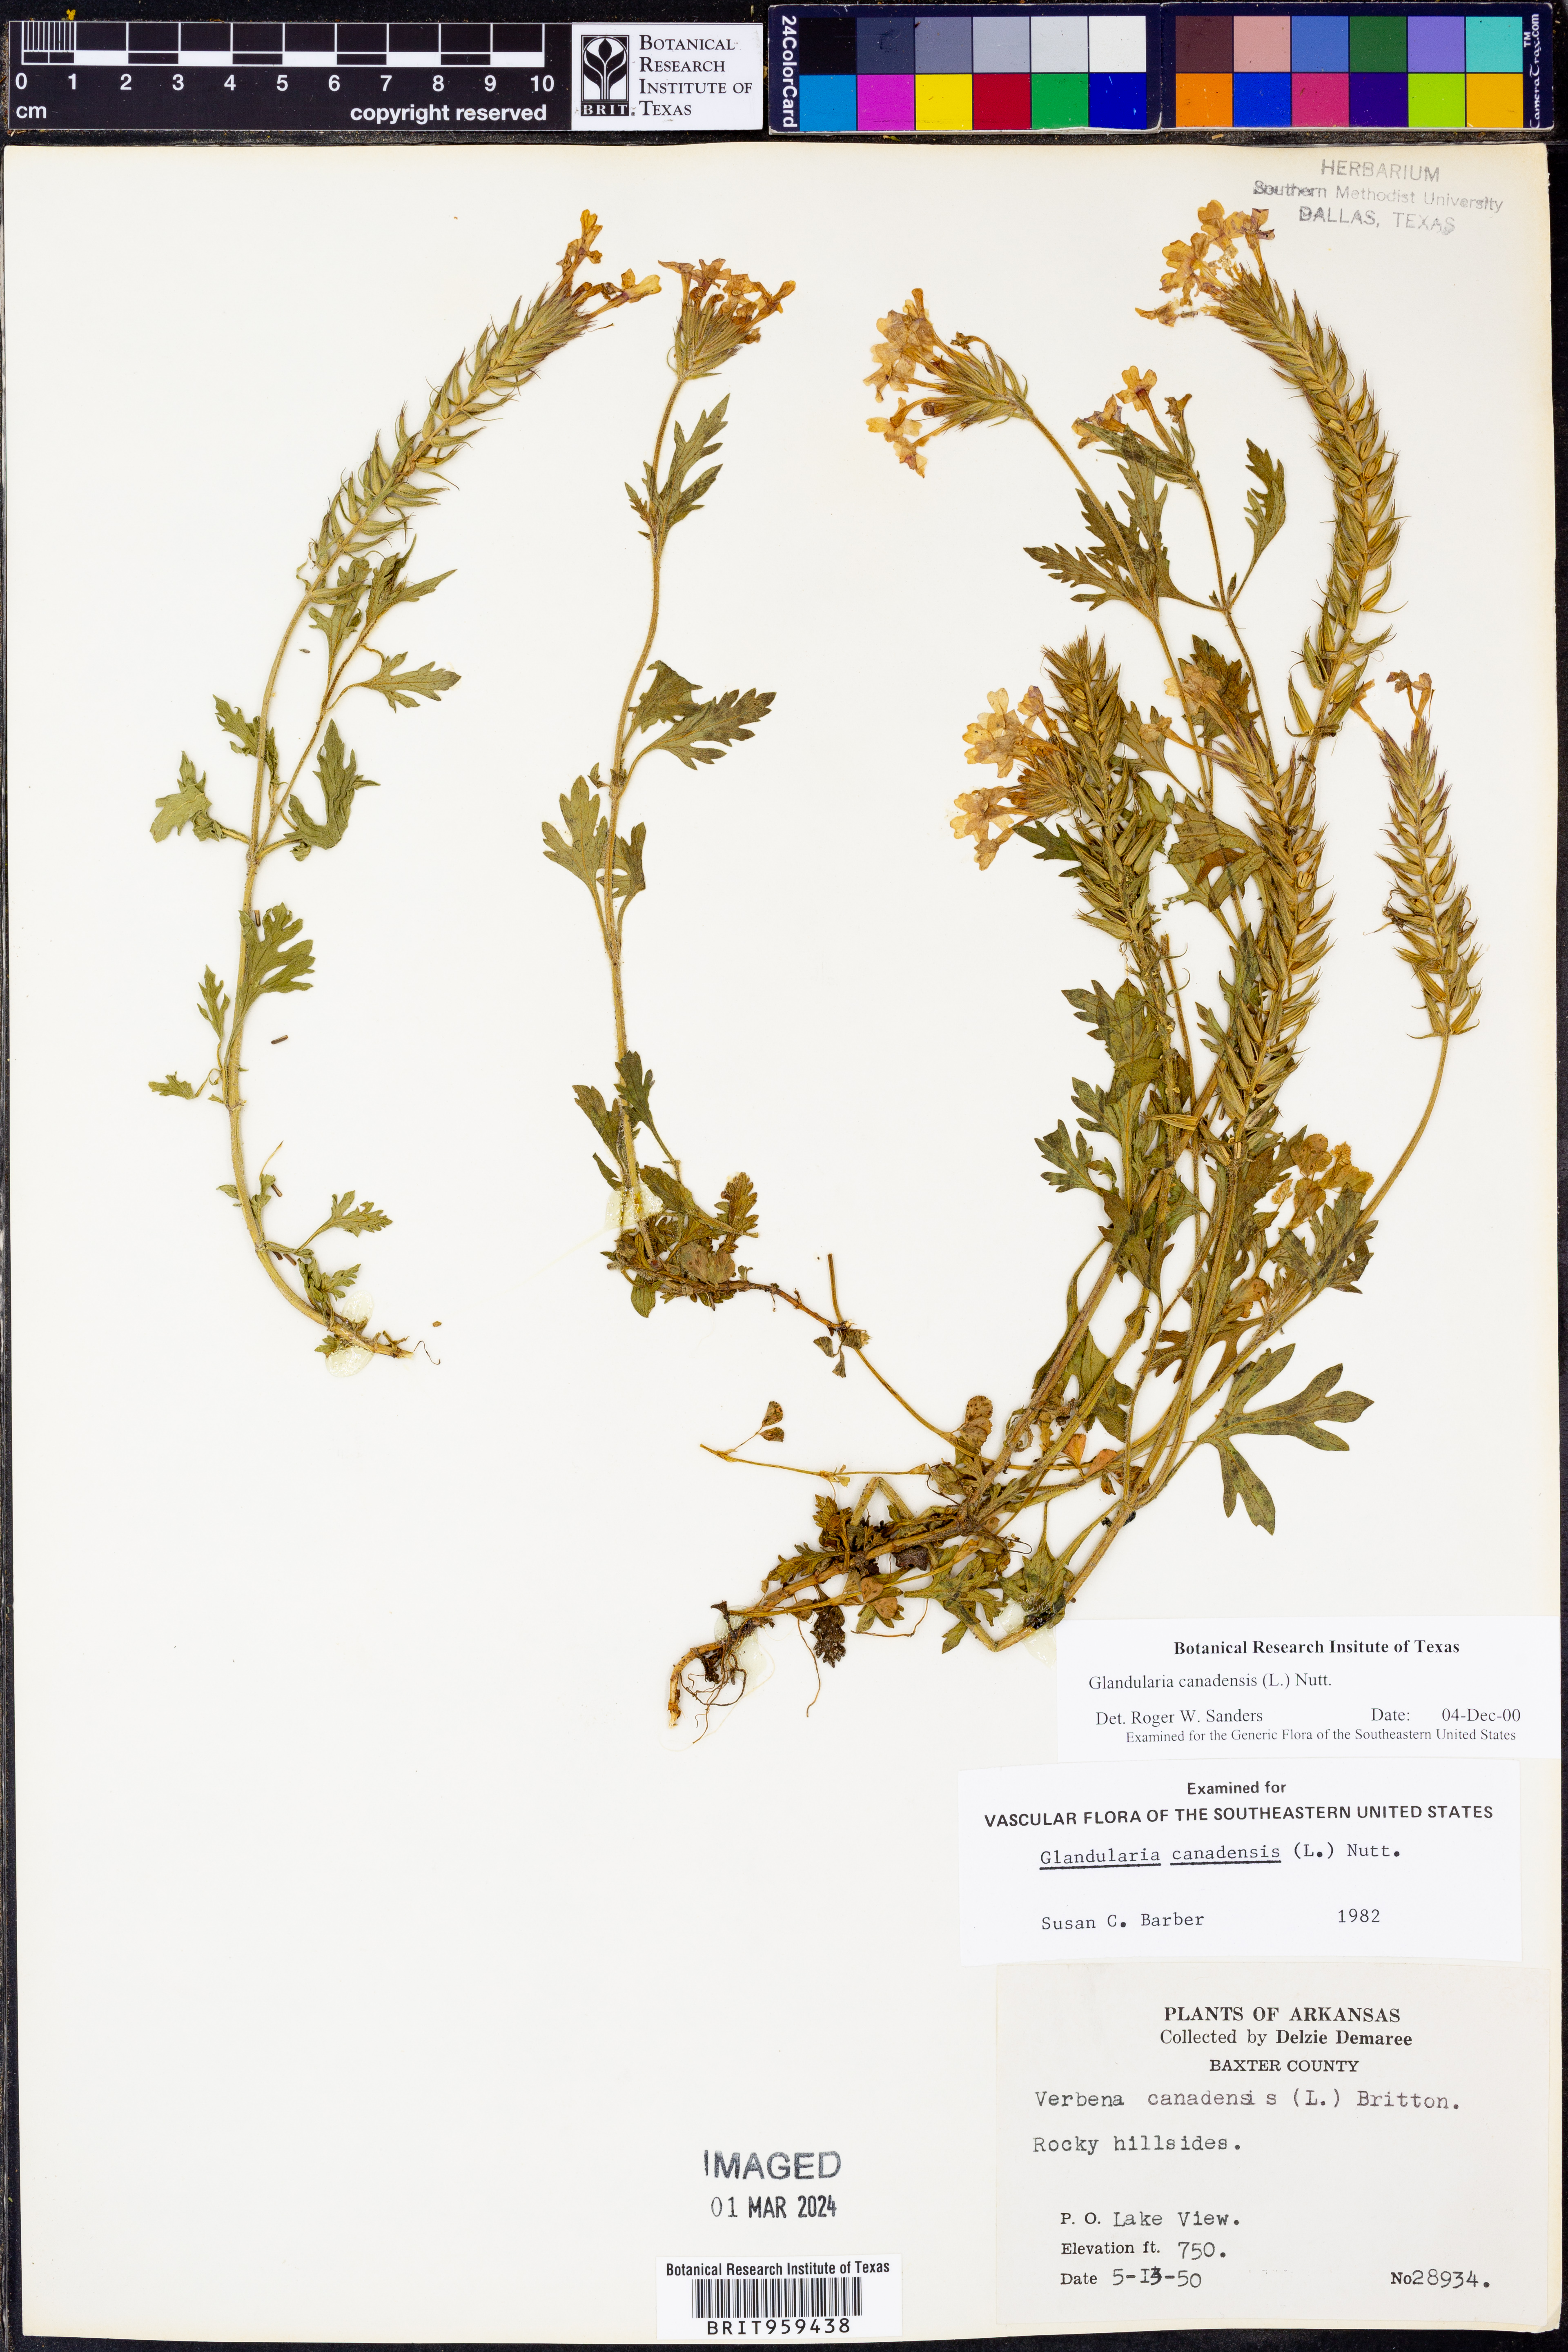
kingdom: Plantae
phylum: Tracheophyta
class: Magnoliopsida
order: Lamiales
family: Verbenaceae
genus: Verbena
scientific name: Verbena canadensis
